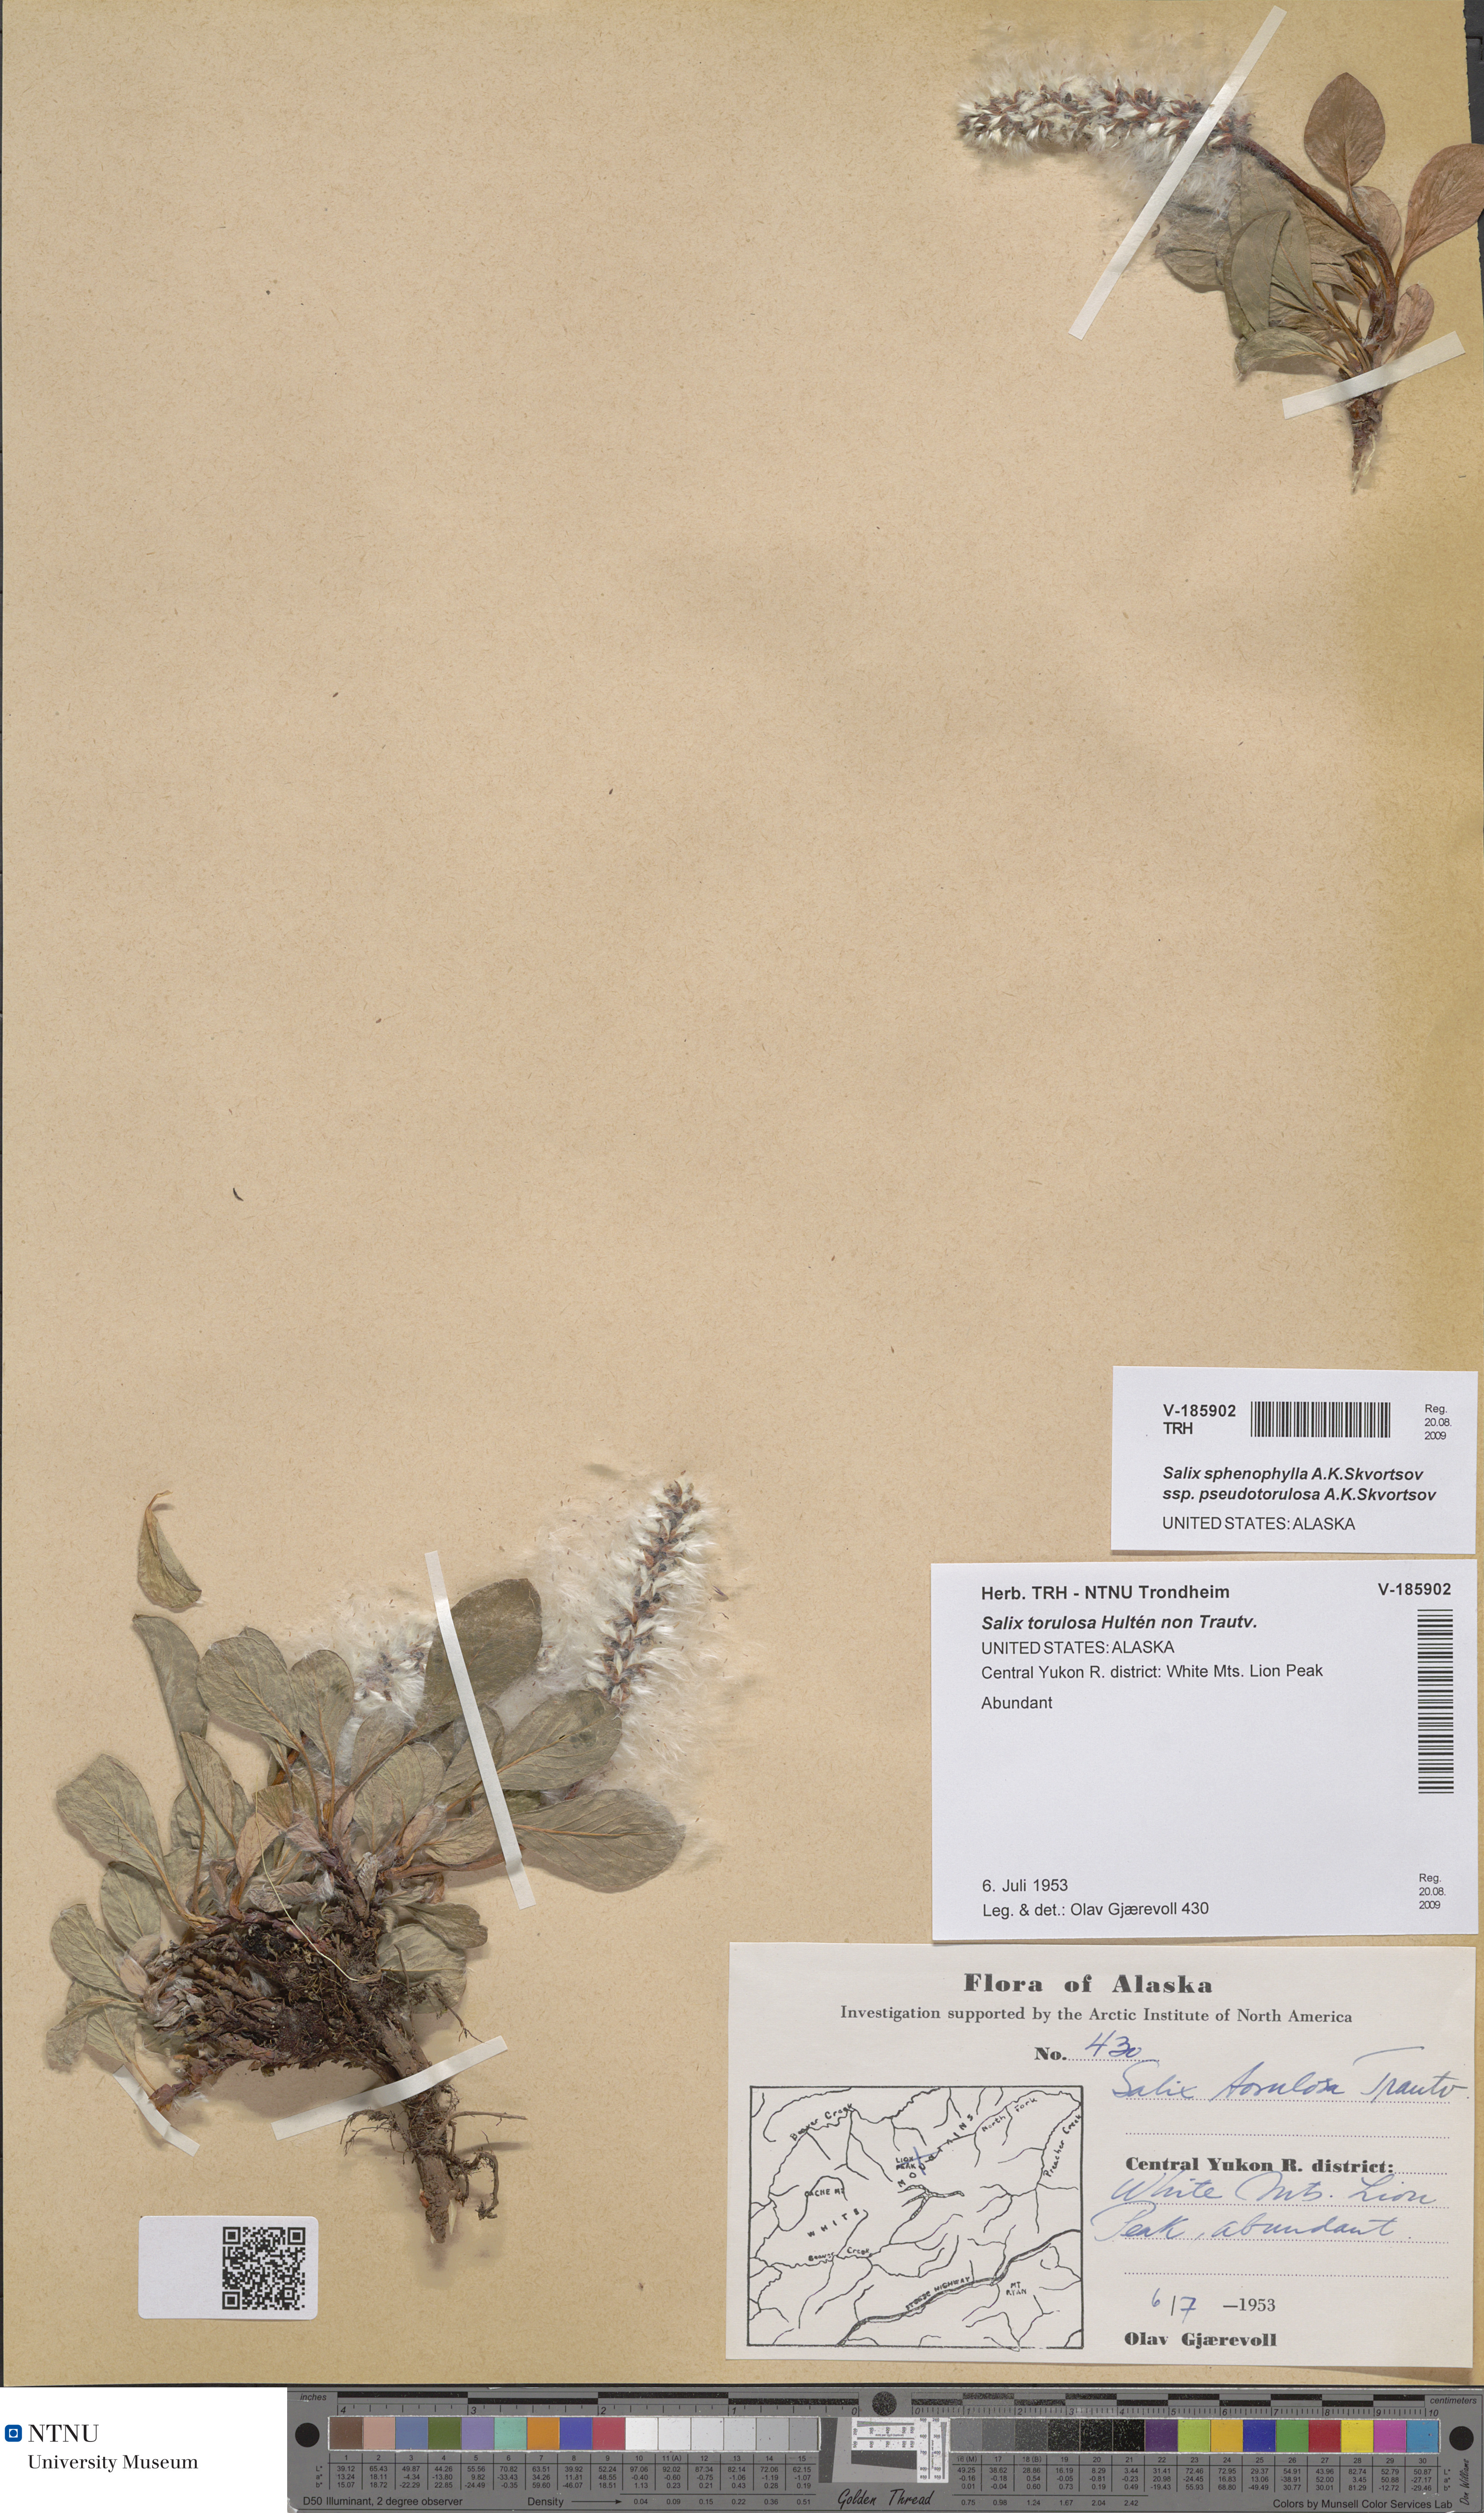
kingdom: Plantae
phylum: Tracheophyta
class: Magnoliopsida
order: Malpighiales
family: Salicaceae
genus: Salix
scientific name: Salix sphenophylla
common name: Wedge-leaved willow
